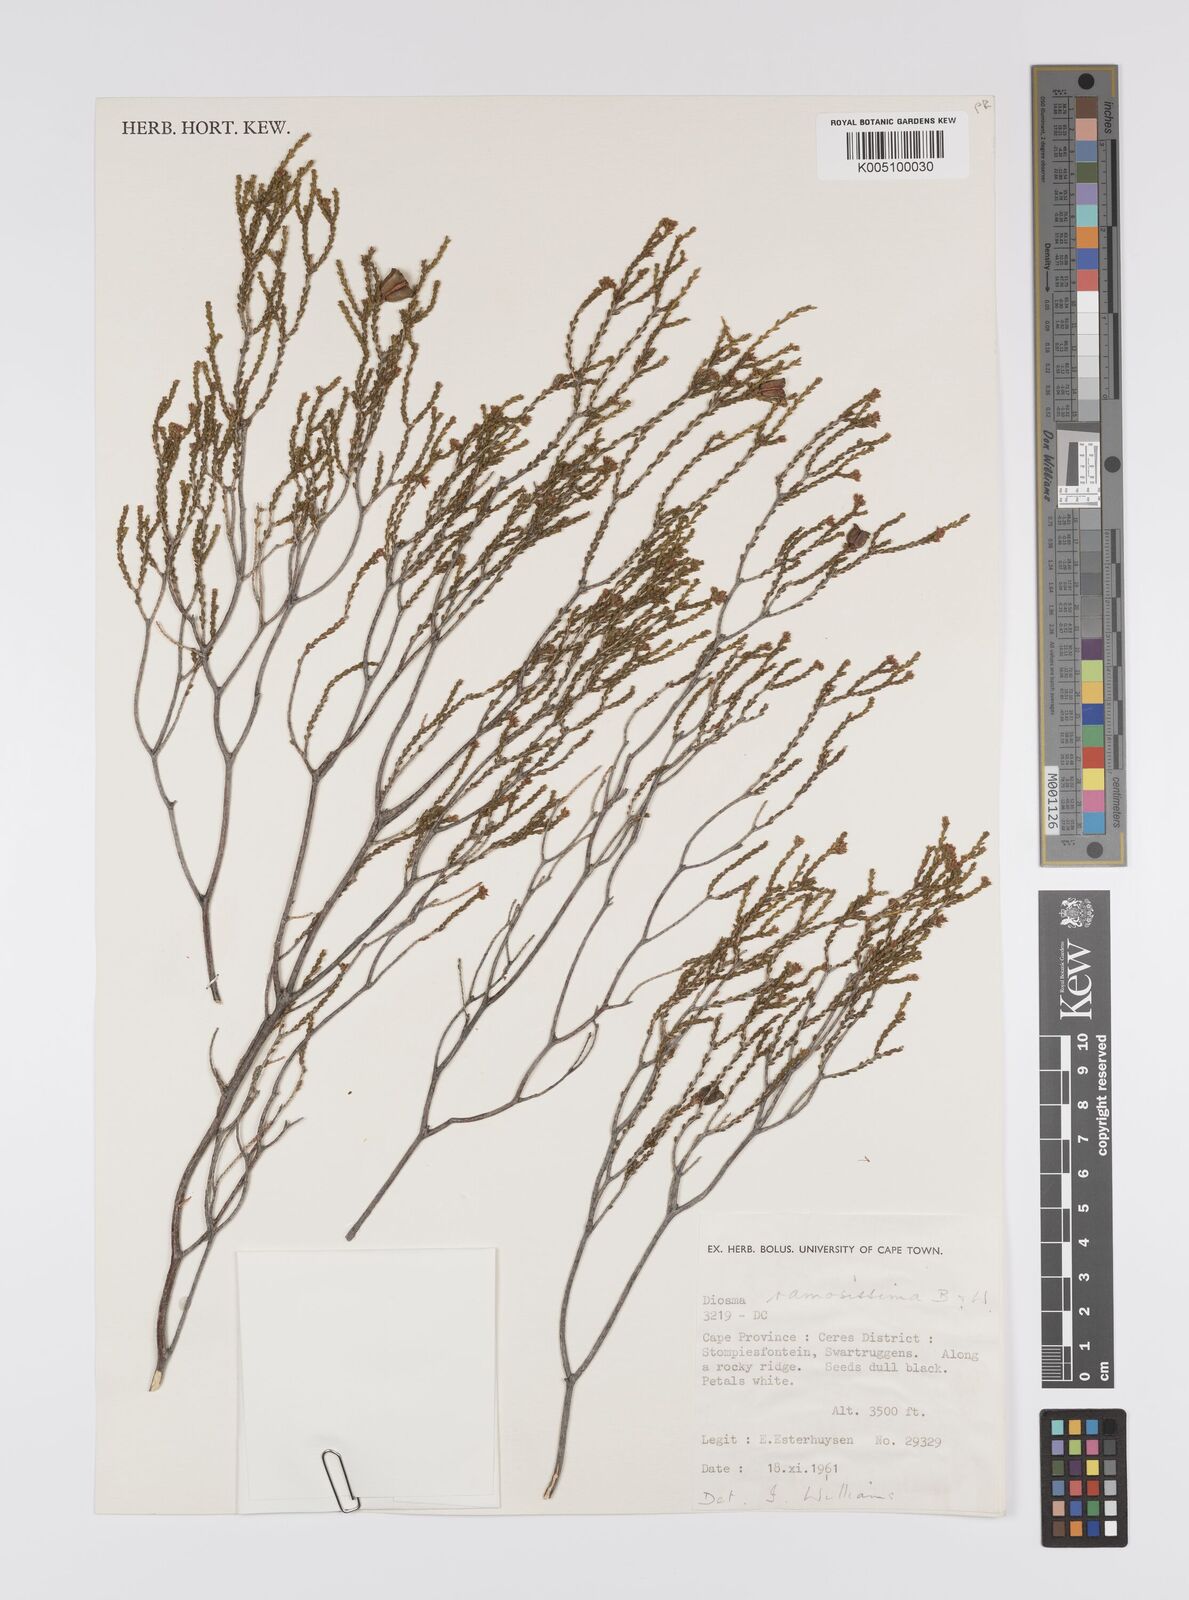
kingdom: Plantae
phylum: Tracheophyta
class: Magnoliopsida
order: Sapindales
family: Rutaceae
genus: Diosma
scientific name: Diosma ramosissima
